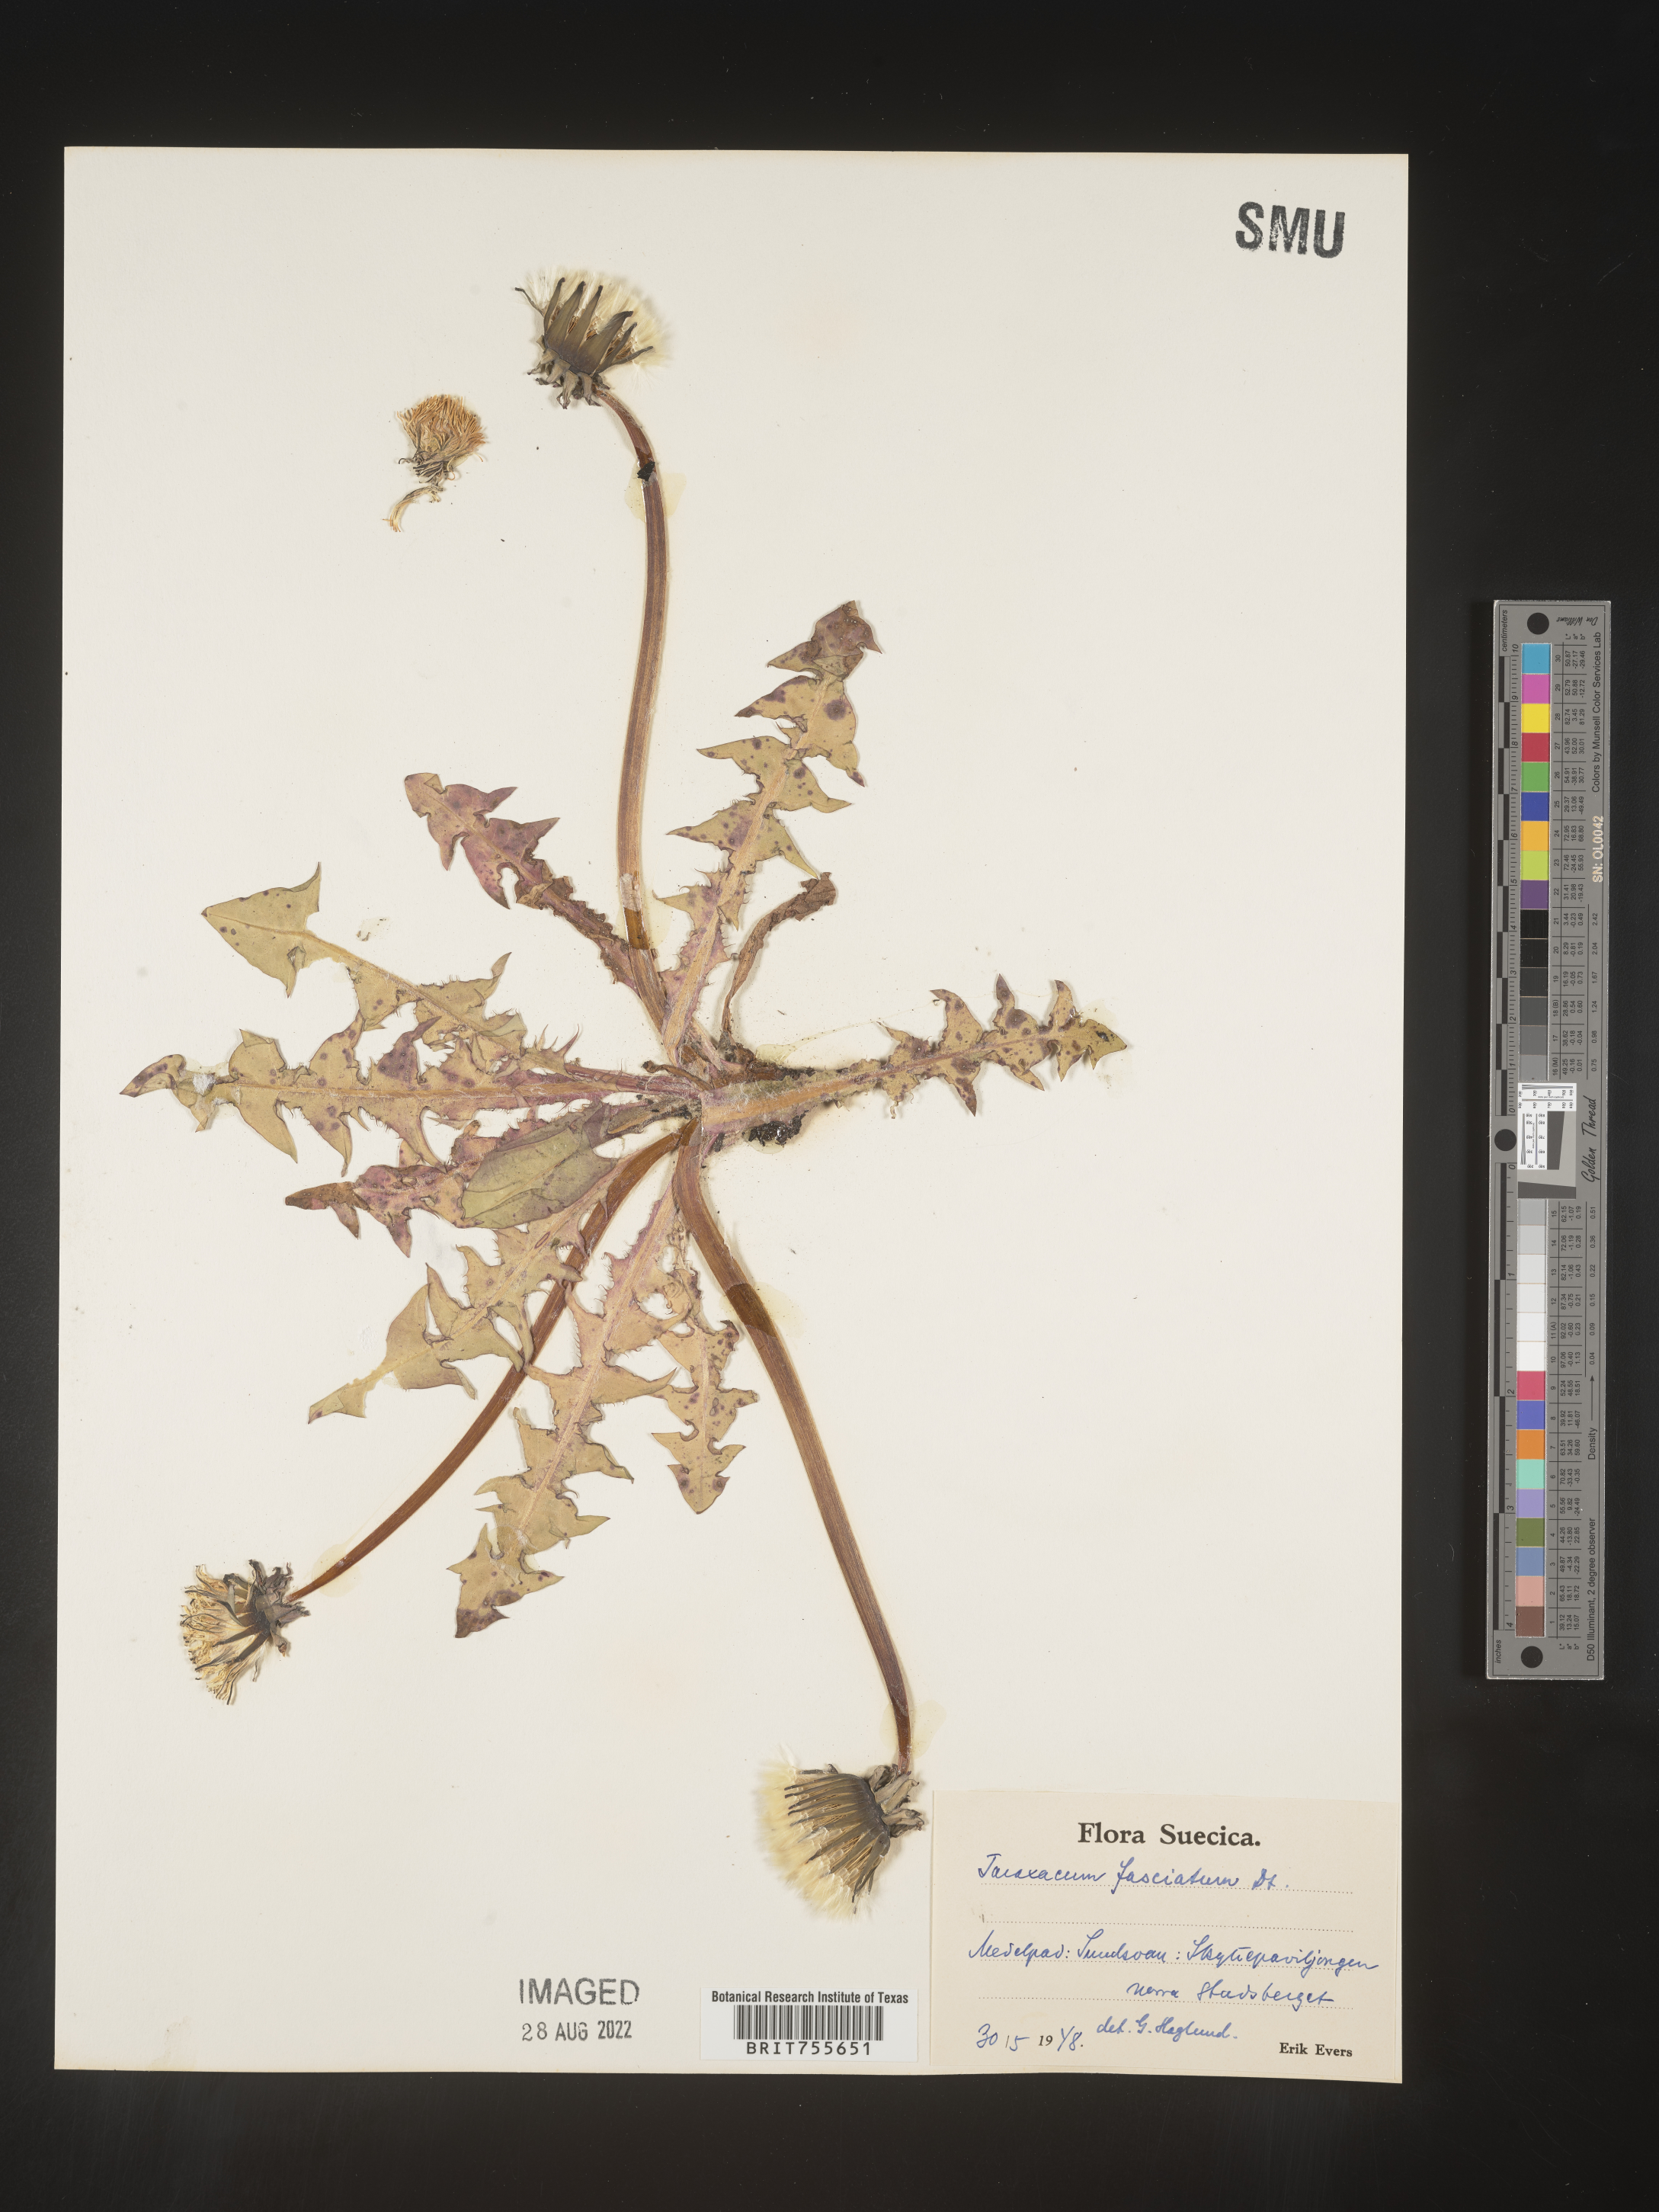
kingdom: Plantae
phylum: Tracheophyta
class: Magnoliopsida
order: Asterales
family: Asteraceae
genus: Taraxacum
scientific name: Taraxacum
